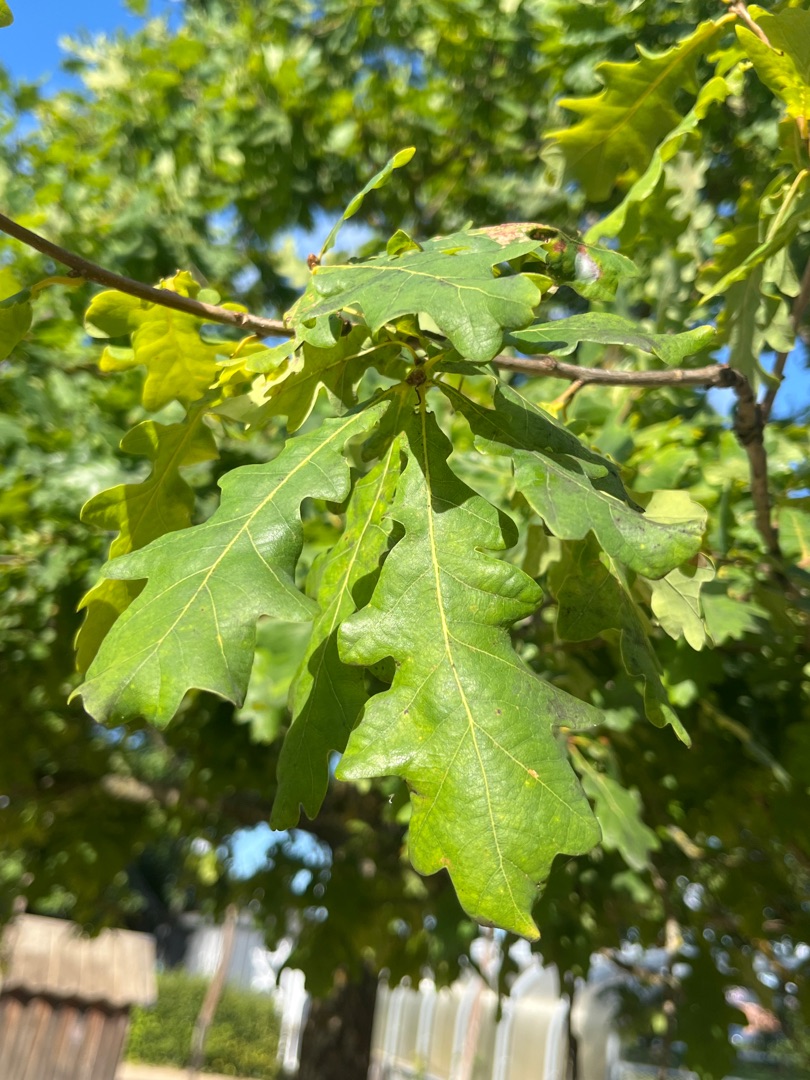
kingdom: Plantae
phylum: Tracheophyta
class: Magnoliopsida
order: Fagales
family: Fagaceae
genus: Quercus
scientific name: Quercus robur
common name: Stilk-eg/almindelig eg
